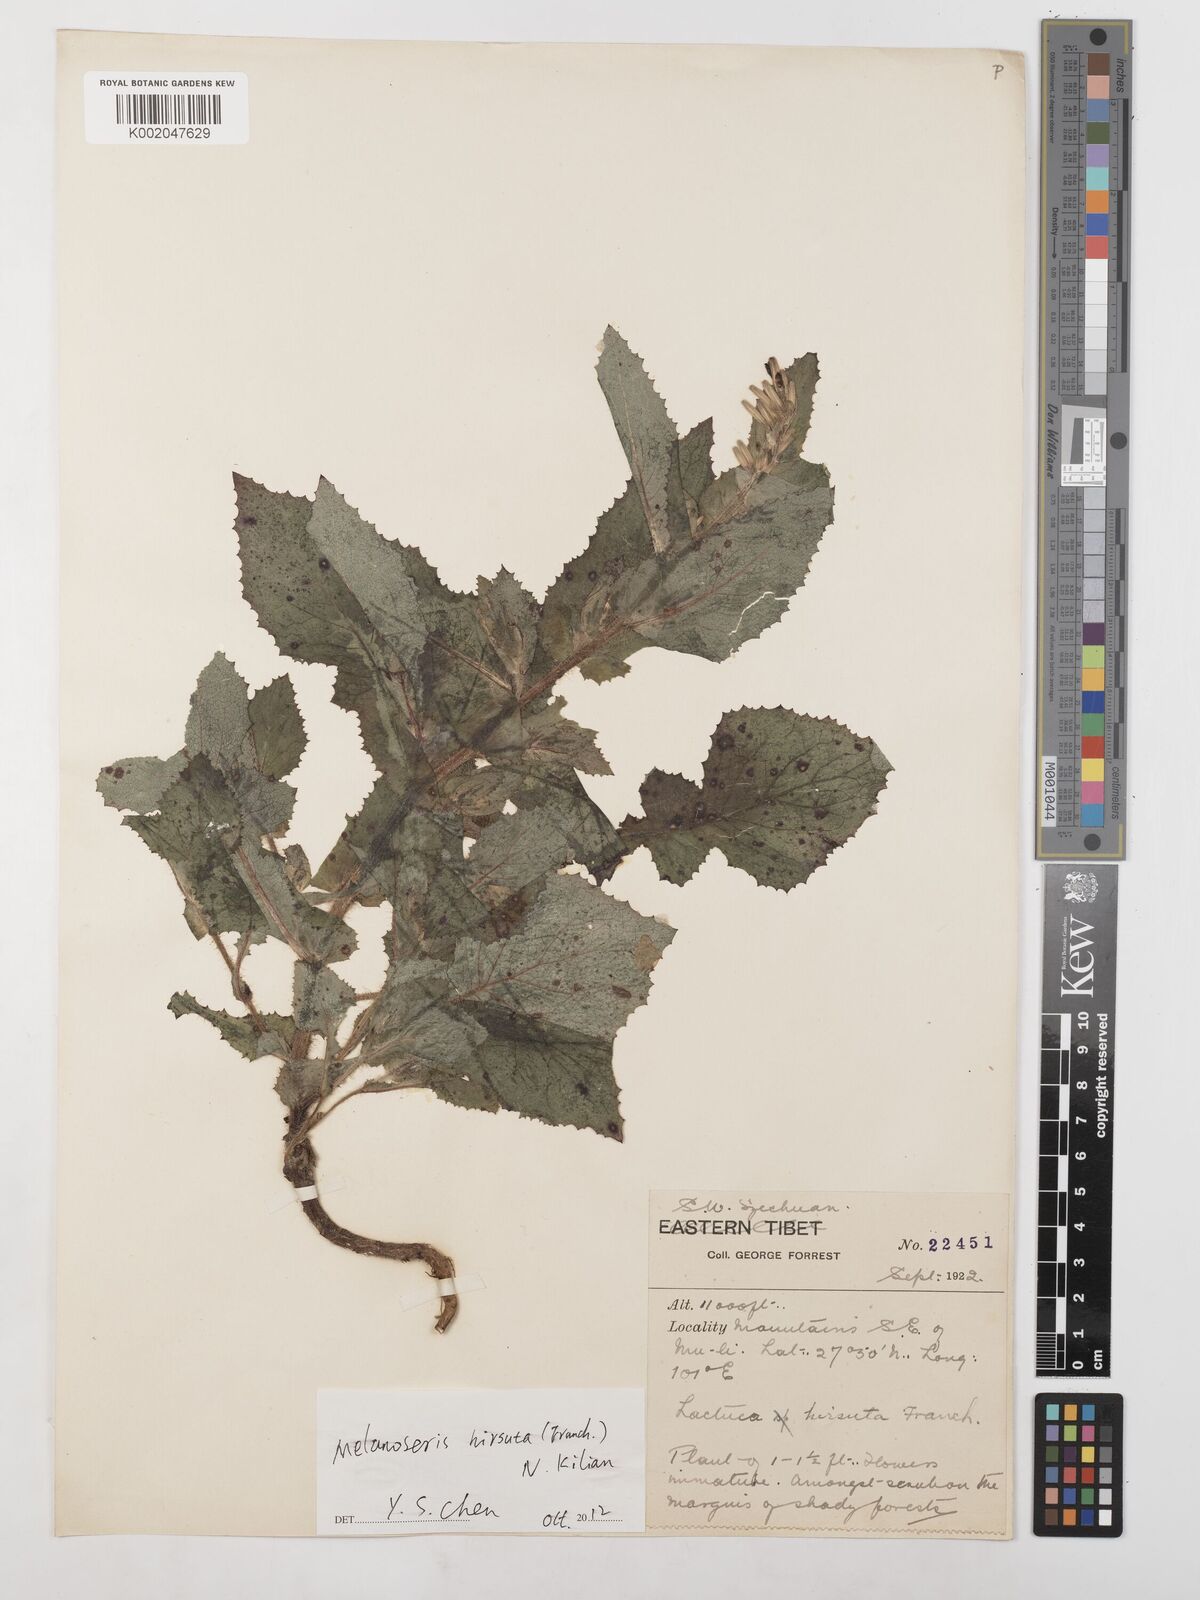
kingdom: Plantae
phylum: Tracheophyta
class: Magnoliopsida
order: Asterales
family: Asteraceae
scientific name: Asteraceae
